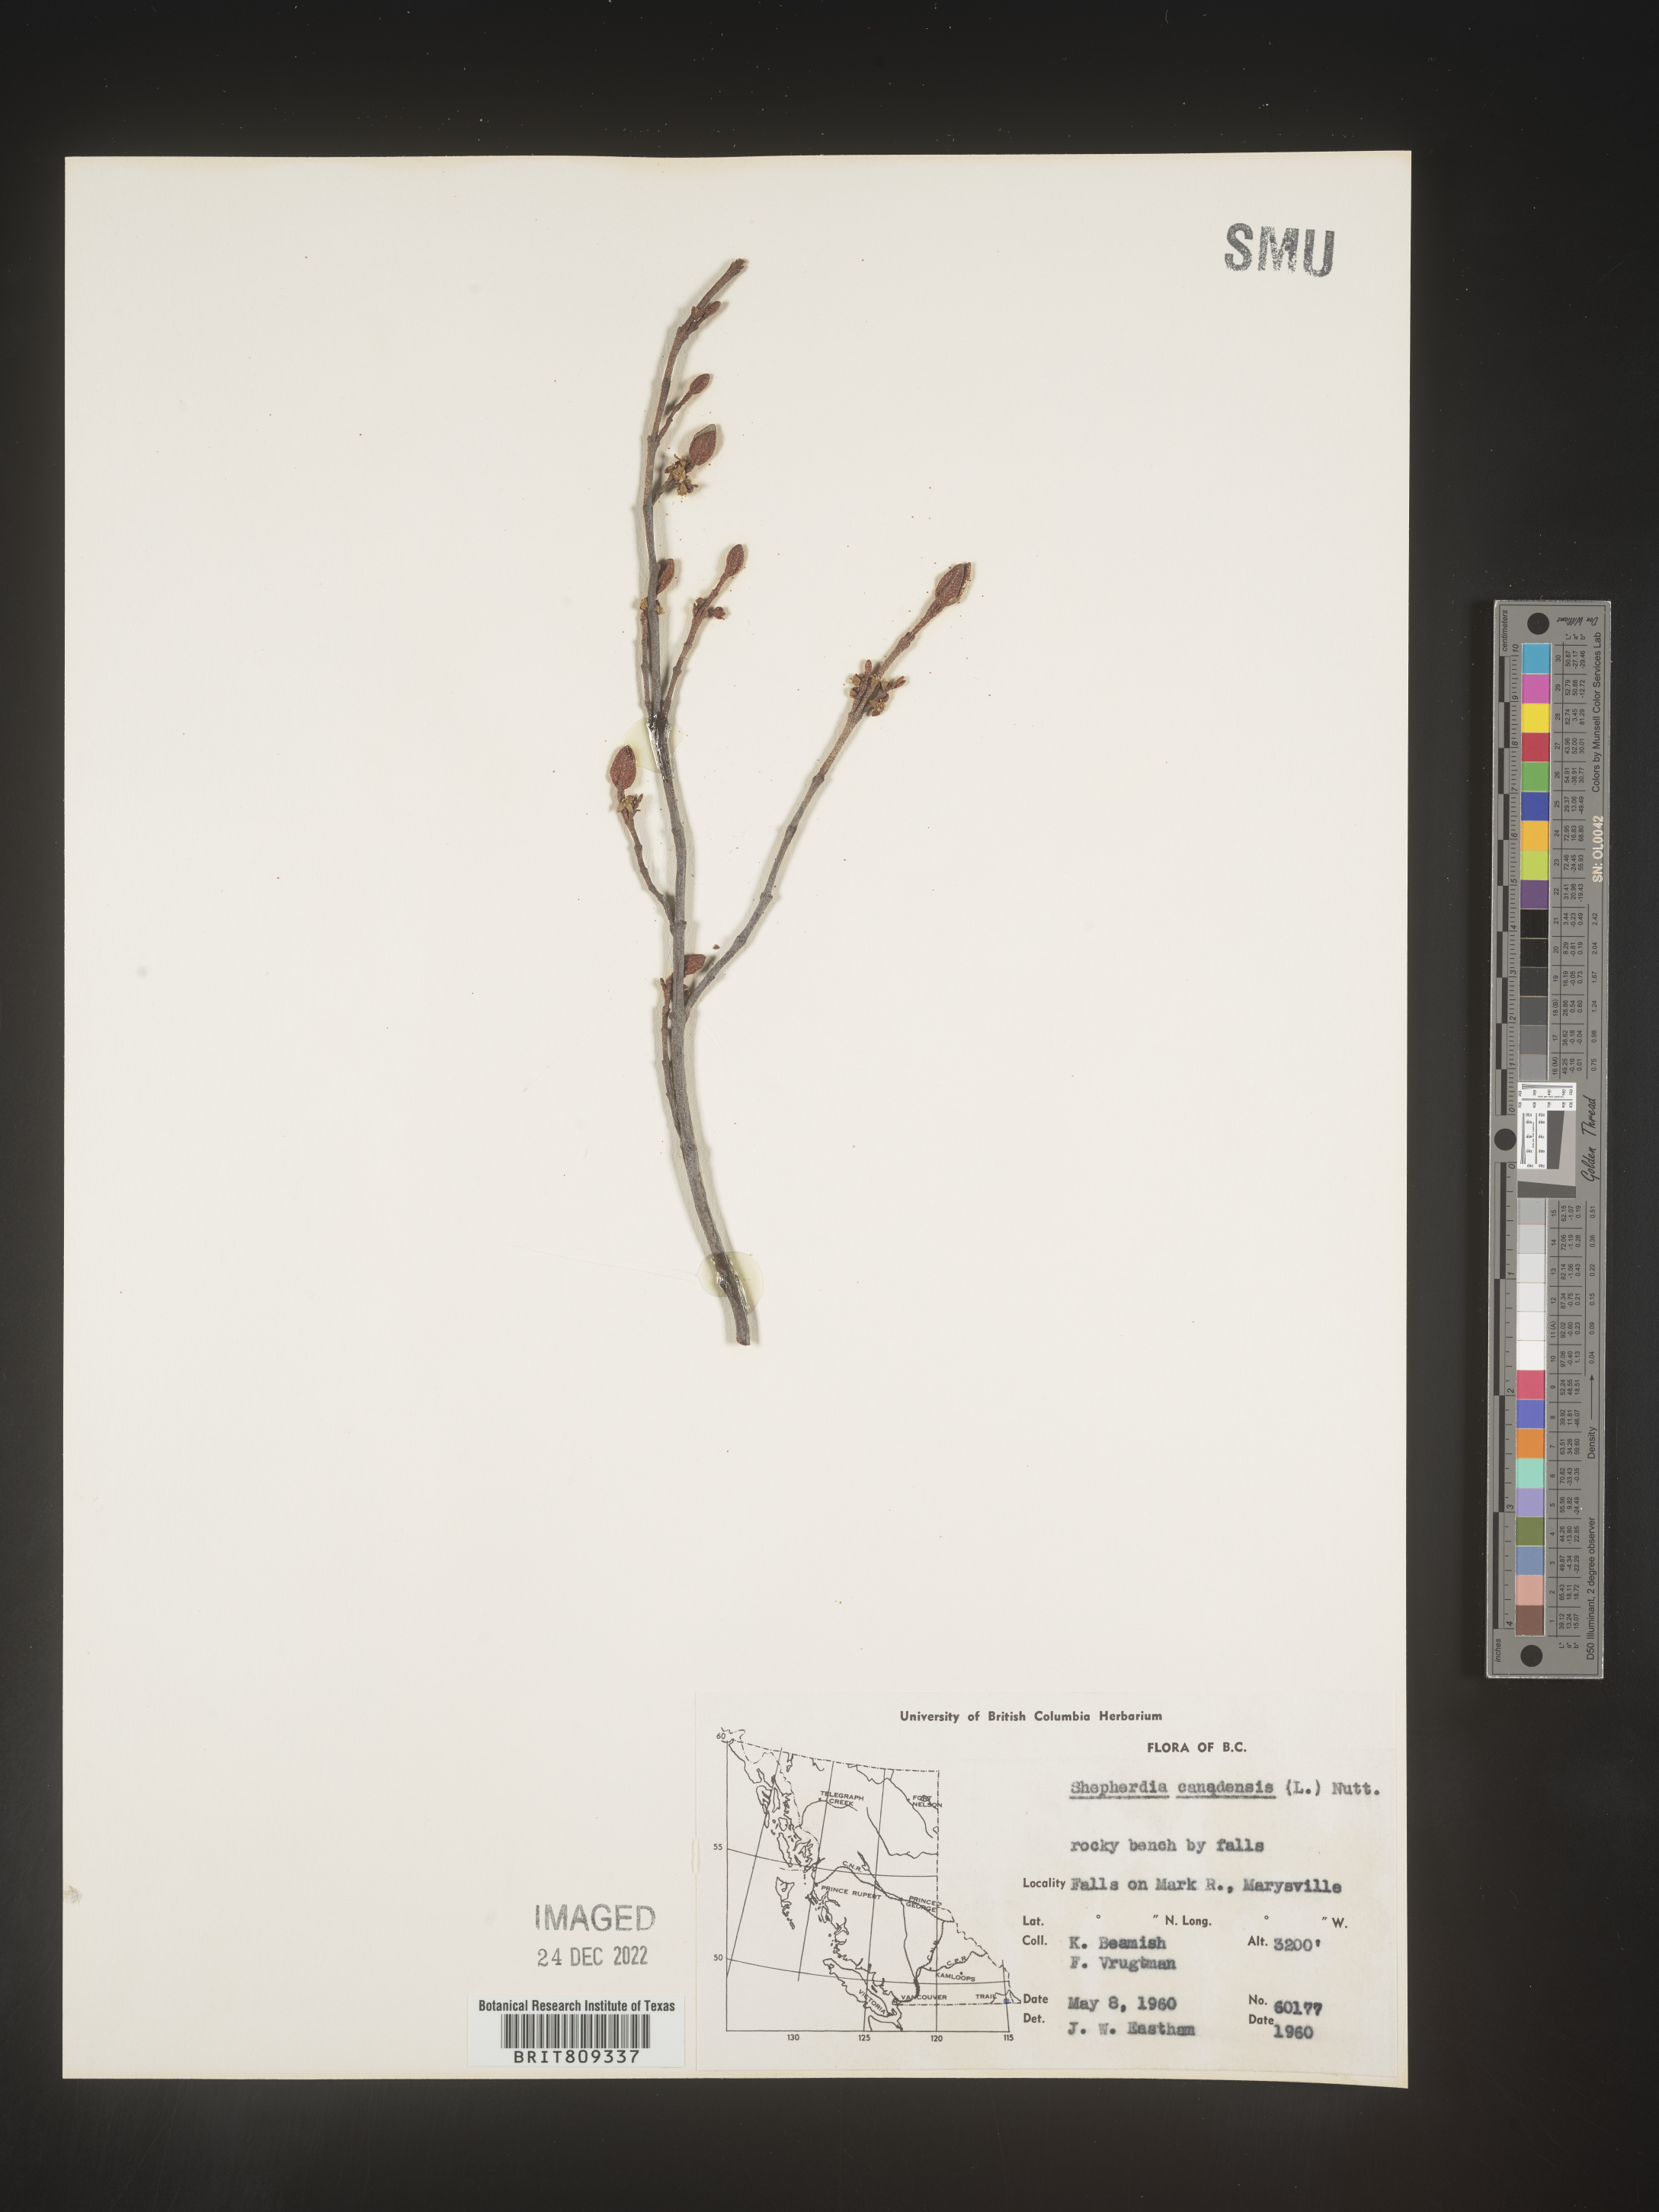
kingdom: Plantae
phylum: Tracheophyta
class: Magnoliopsida
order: Rosales
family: Elaeagnaceae
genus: Shepherdia
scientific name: Shepherdia canadensis
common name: Soapberry
